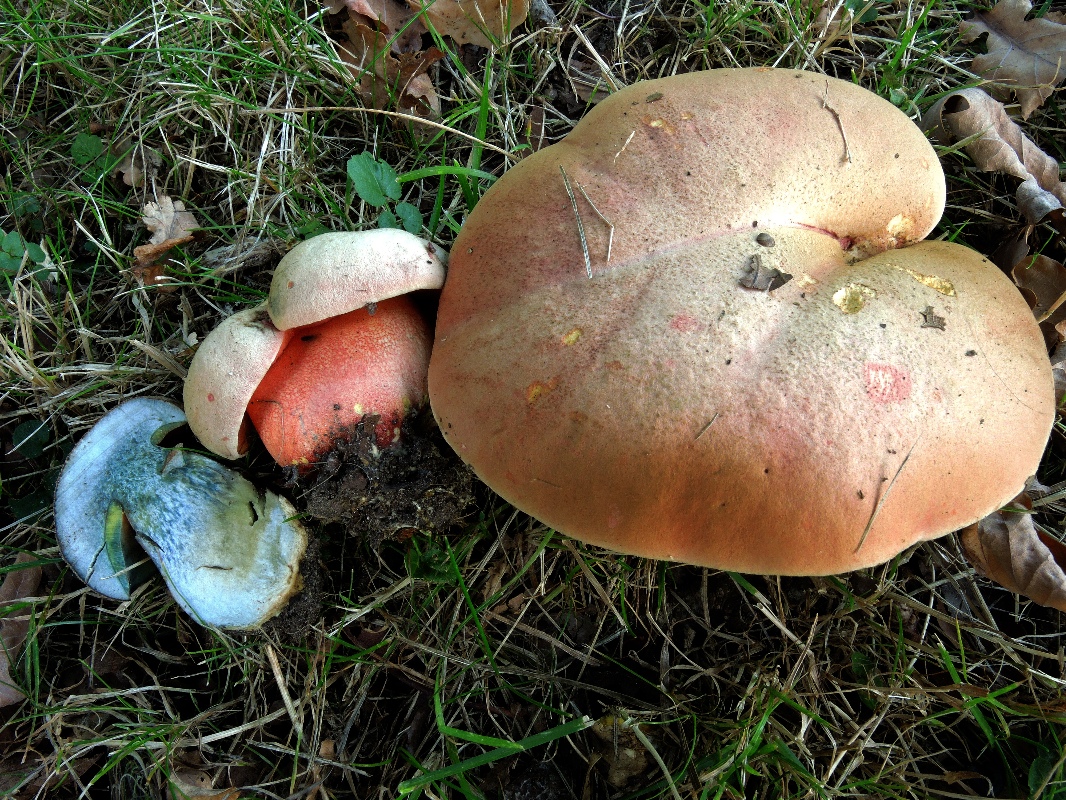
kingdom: Fungi
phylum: Basidiomycota
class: Agaricomycetes
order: Boletales
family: Boletaceae
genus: Rubroboletus
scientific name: Rubroboletus legaliae
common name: djævle-rørhat
